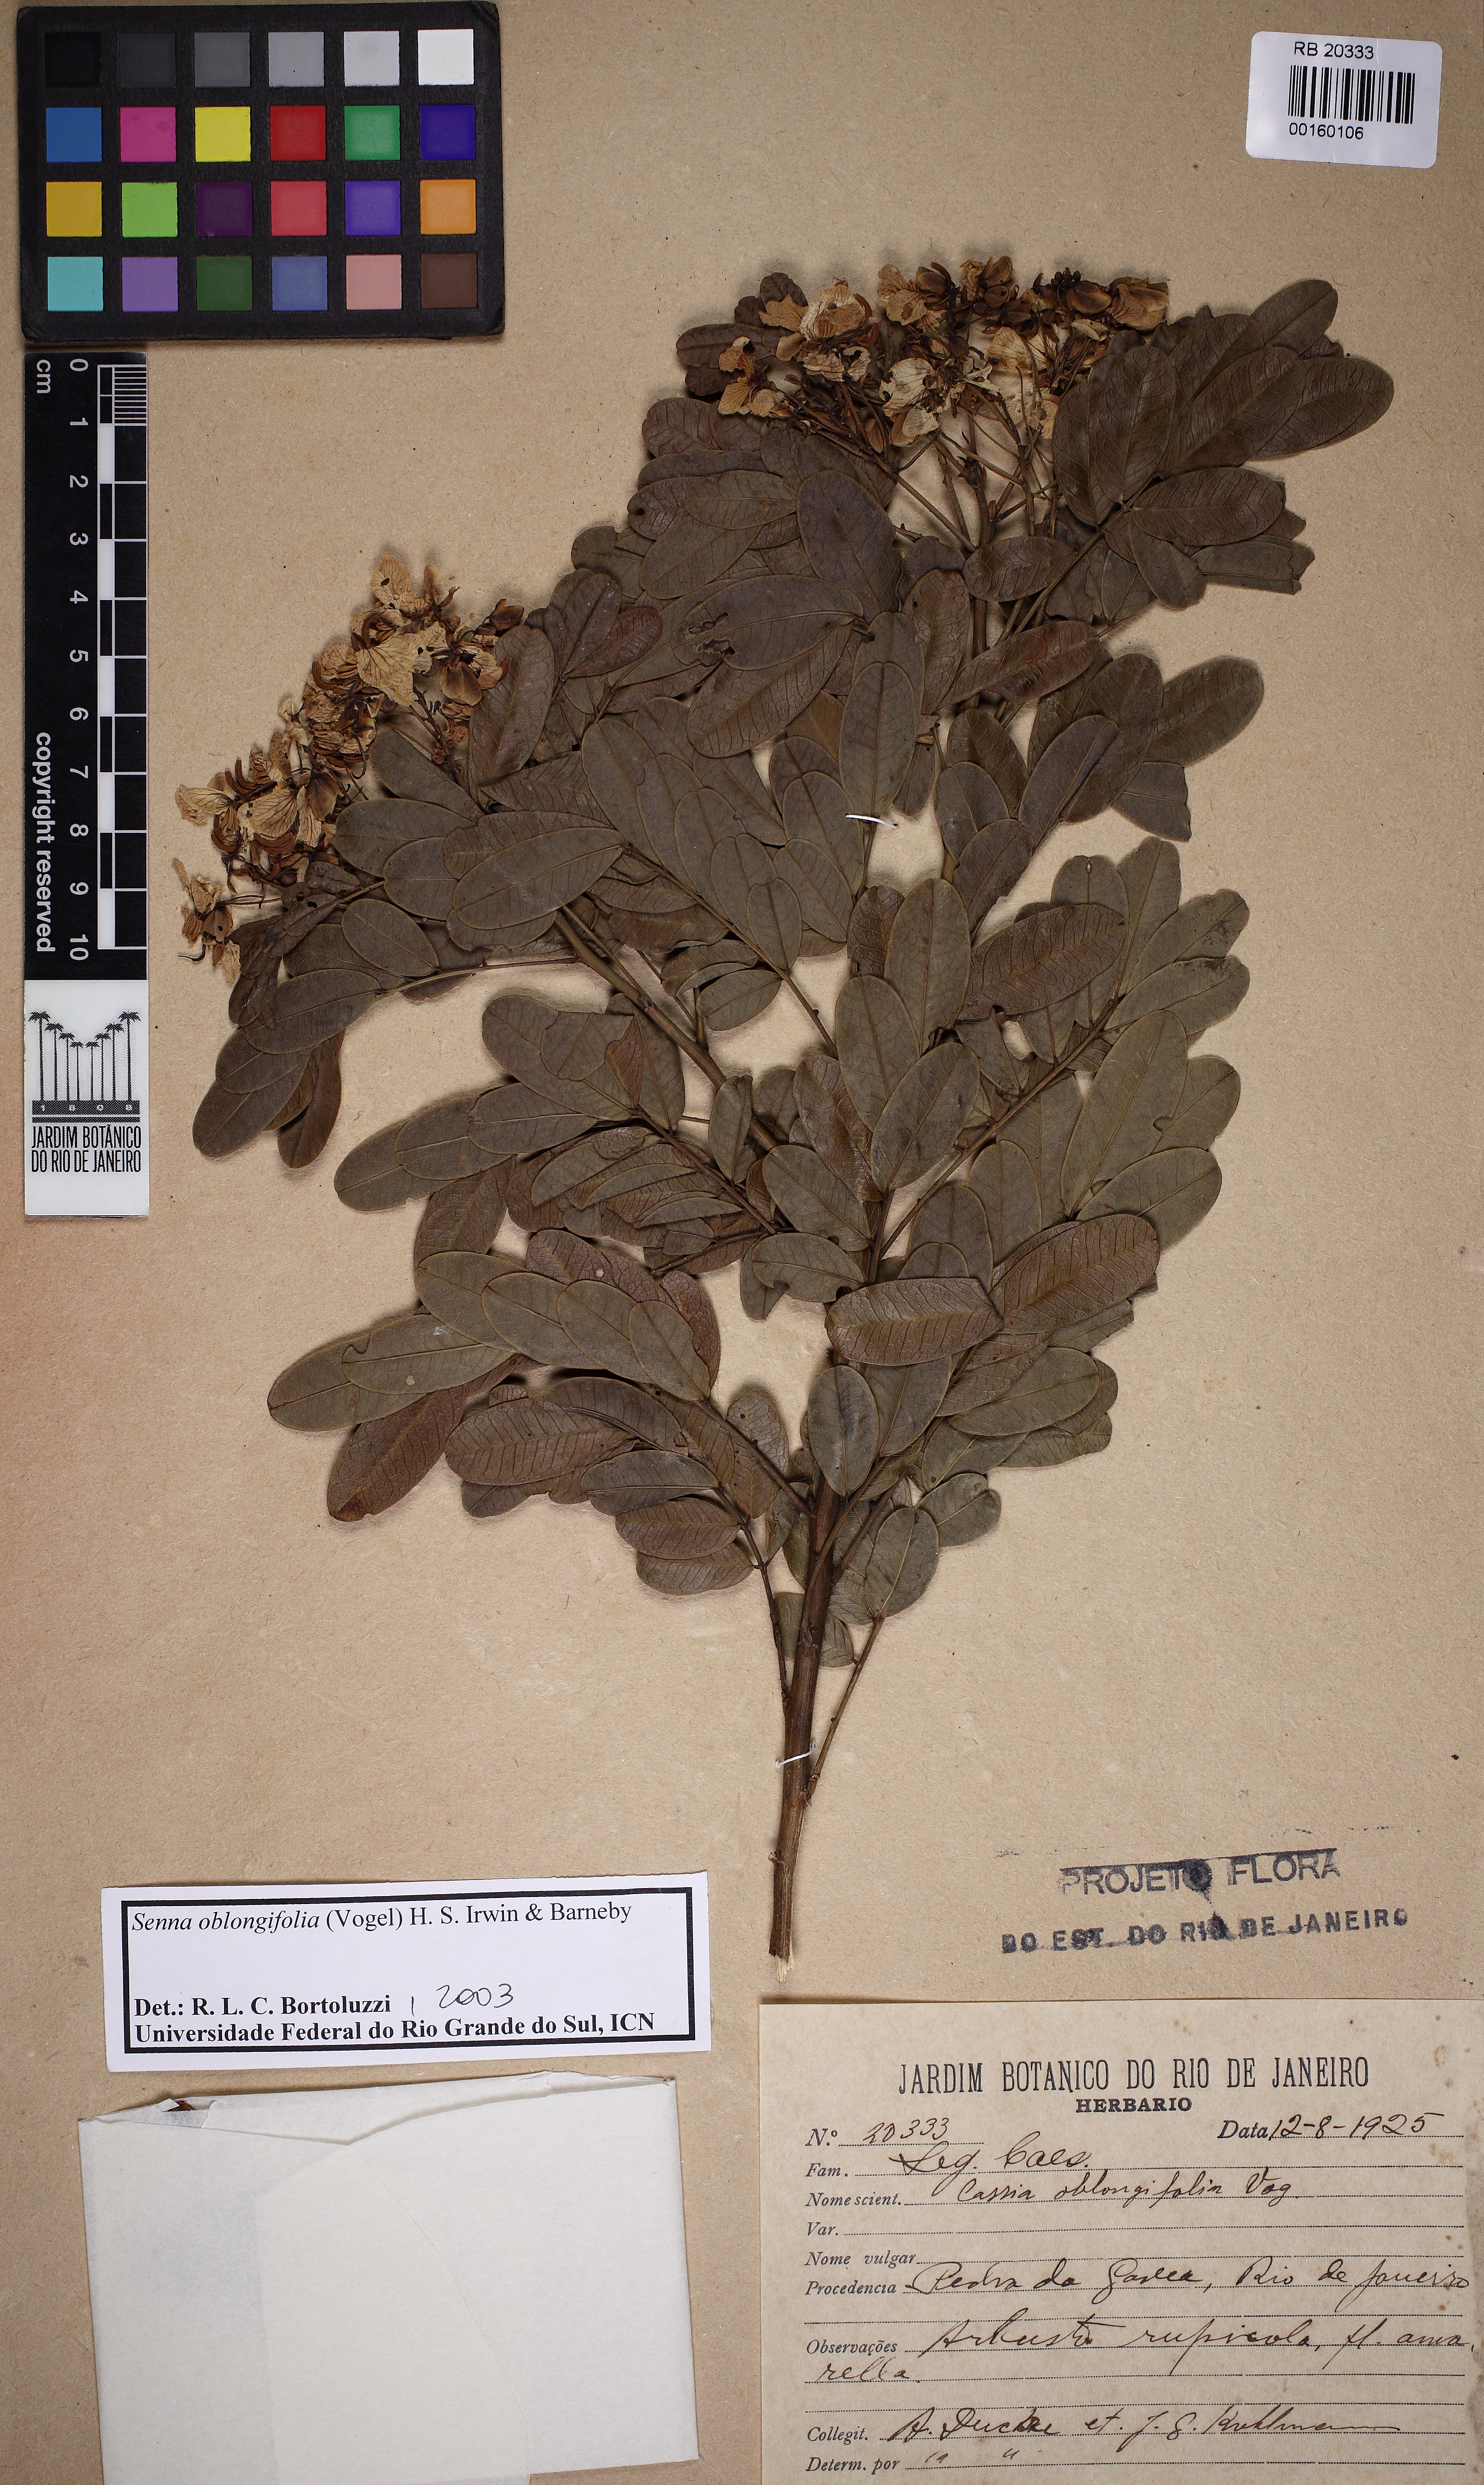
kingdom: Plantae
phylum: Tracheophyta
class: Magnoliopsida
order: Fabales
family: Fabaceae
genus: Senna
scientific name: Senna oblongifolia
